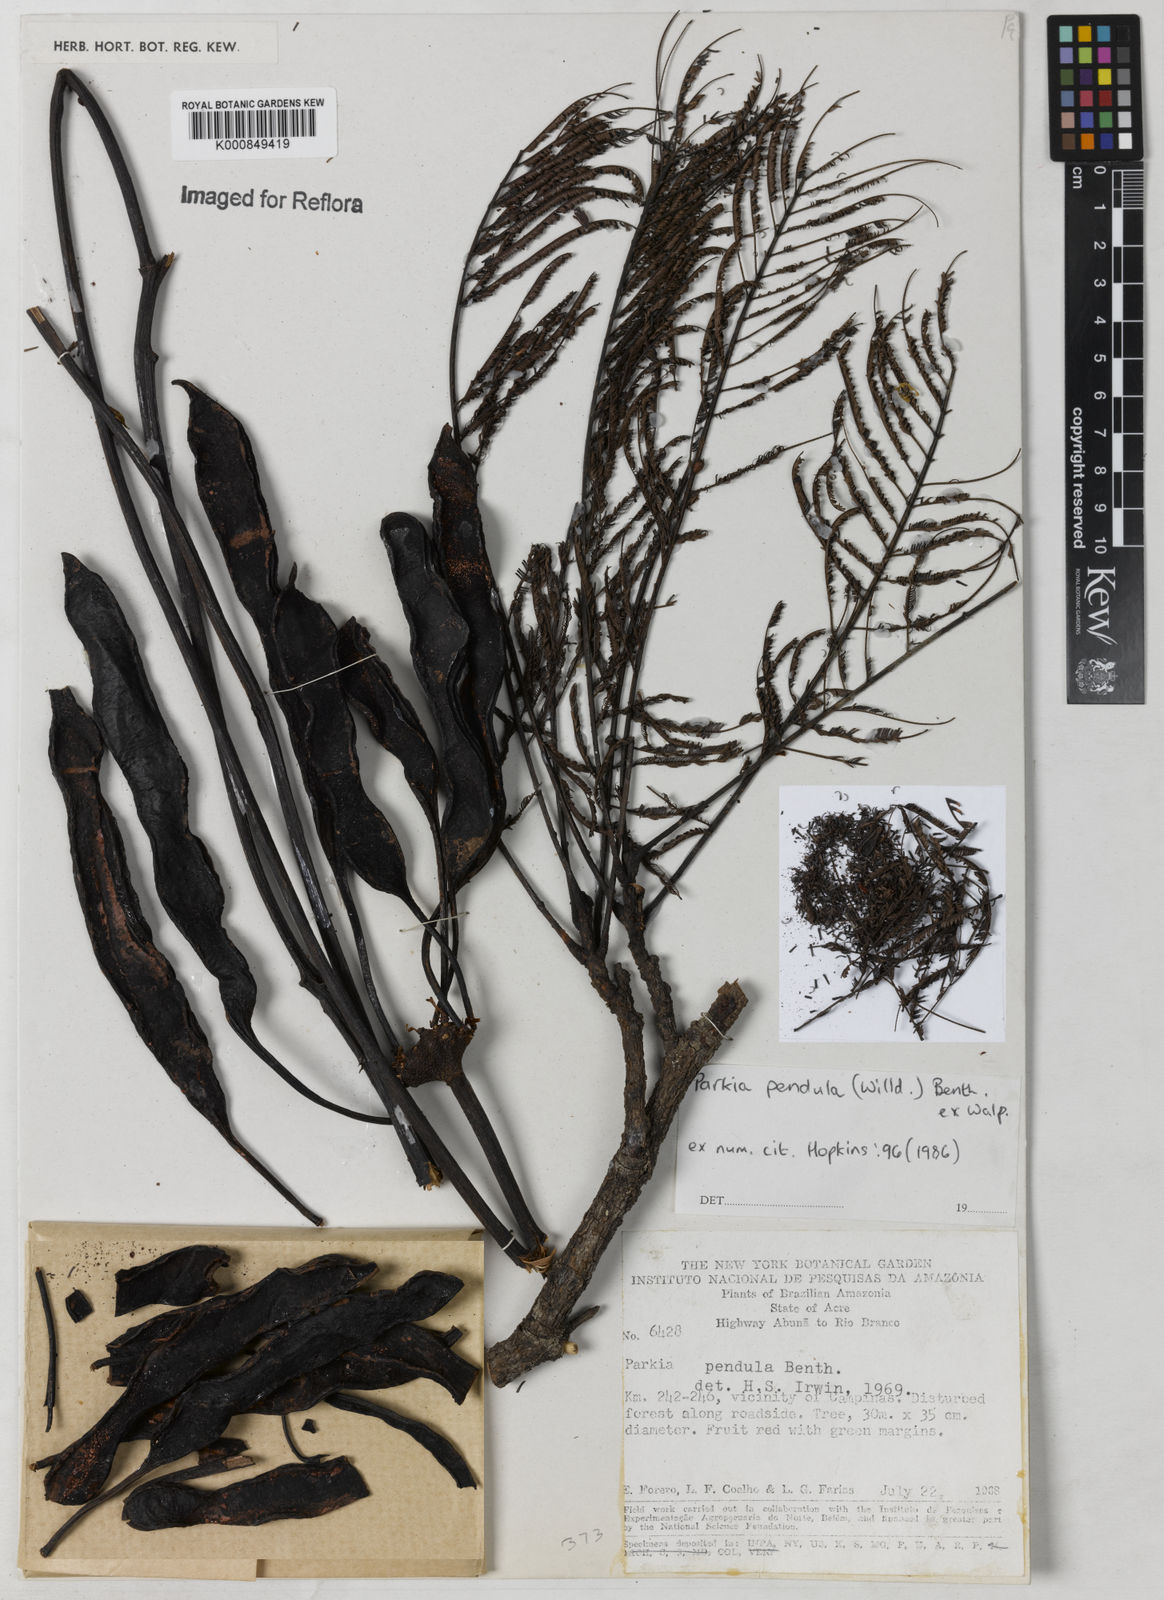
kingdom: Plantae
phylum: Tracheophyta
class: Magnoliopsida
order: Fabales
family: Fabaceae
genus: Parkia
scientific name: Parkia
